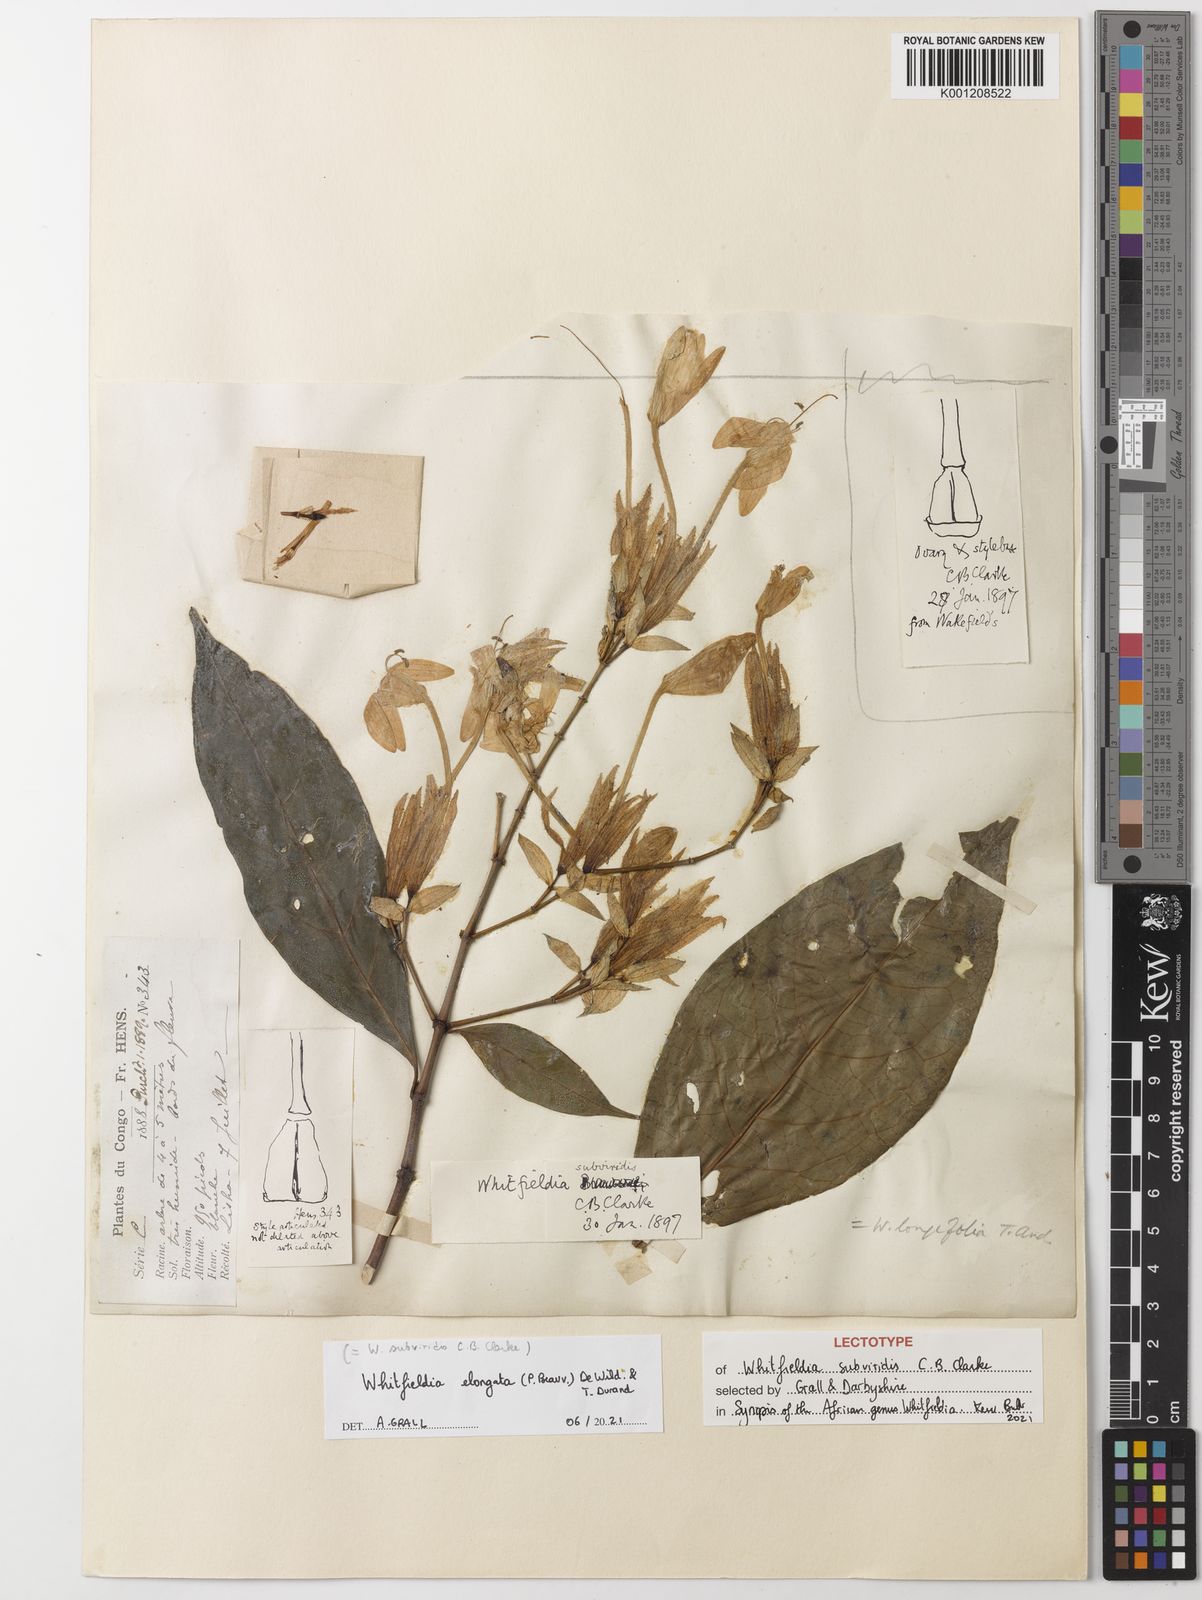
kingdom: Plantae
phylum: Tracheophyta
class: Magnoliopsida
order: Lamiales
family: Acanthaceae
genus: Whitfieldia
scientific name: Whitfieldia
